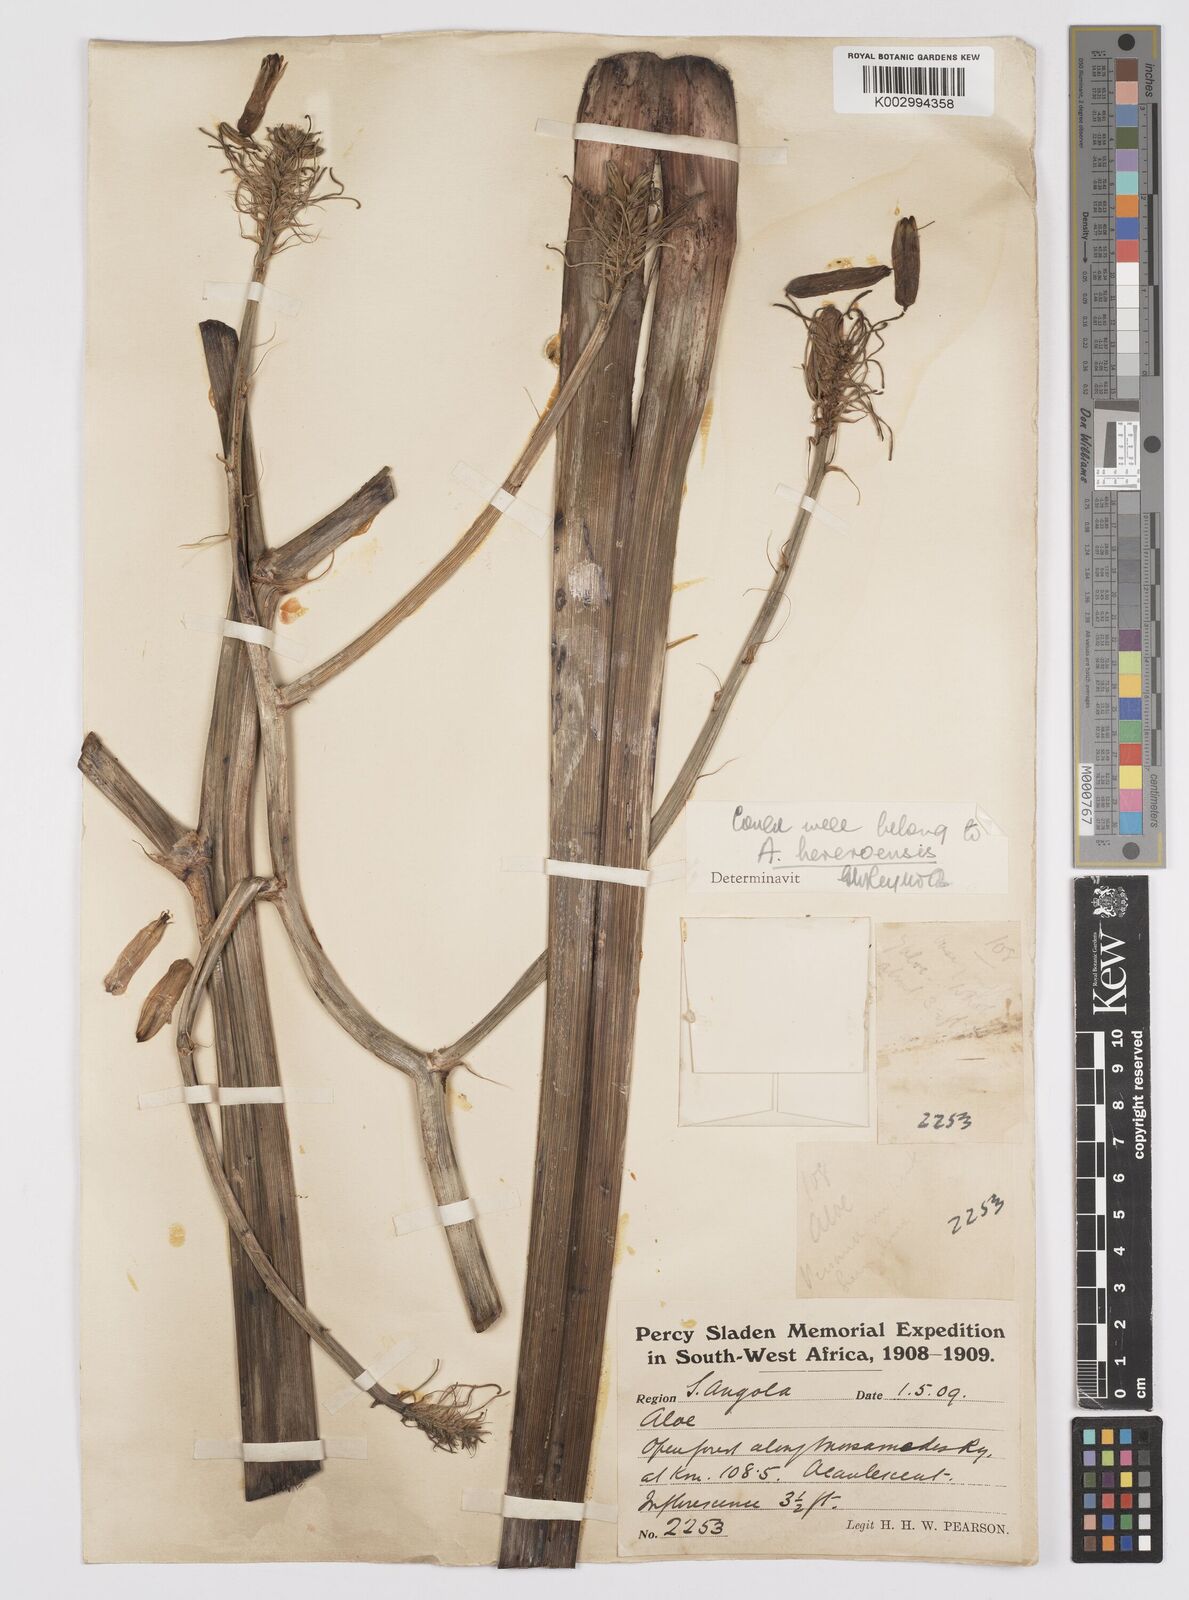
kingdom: Plantae
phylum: Tracheophyta
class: Liliopsida
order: Asparagales
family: Asphodelaceae
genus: Aloe
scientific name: Aloe hereroensis
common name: Herero aloe
